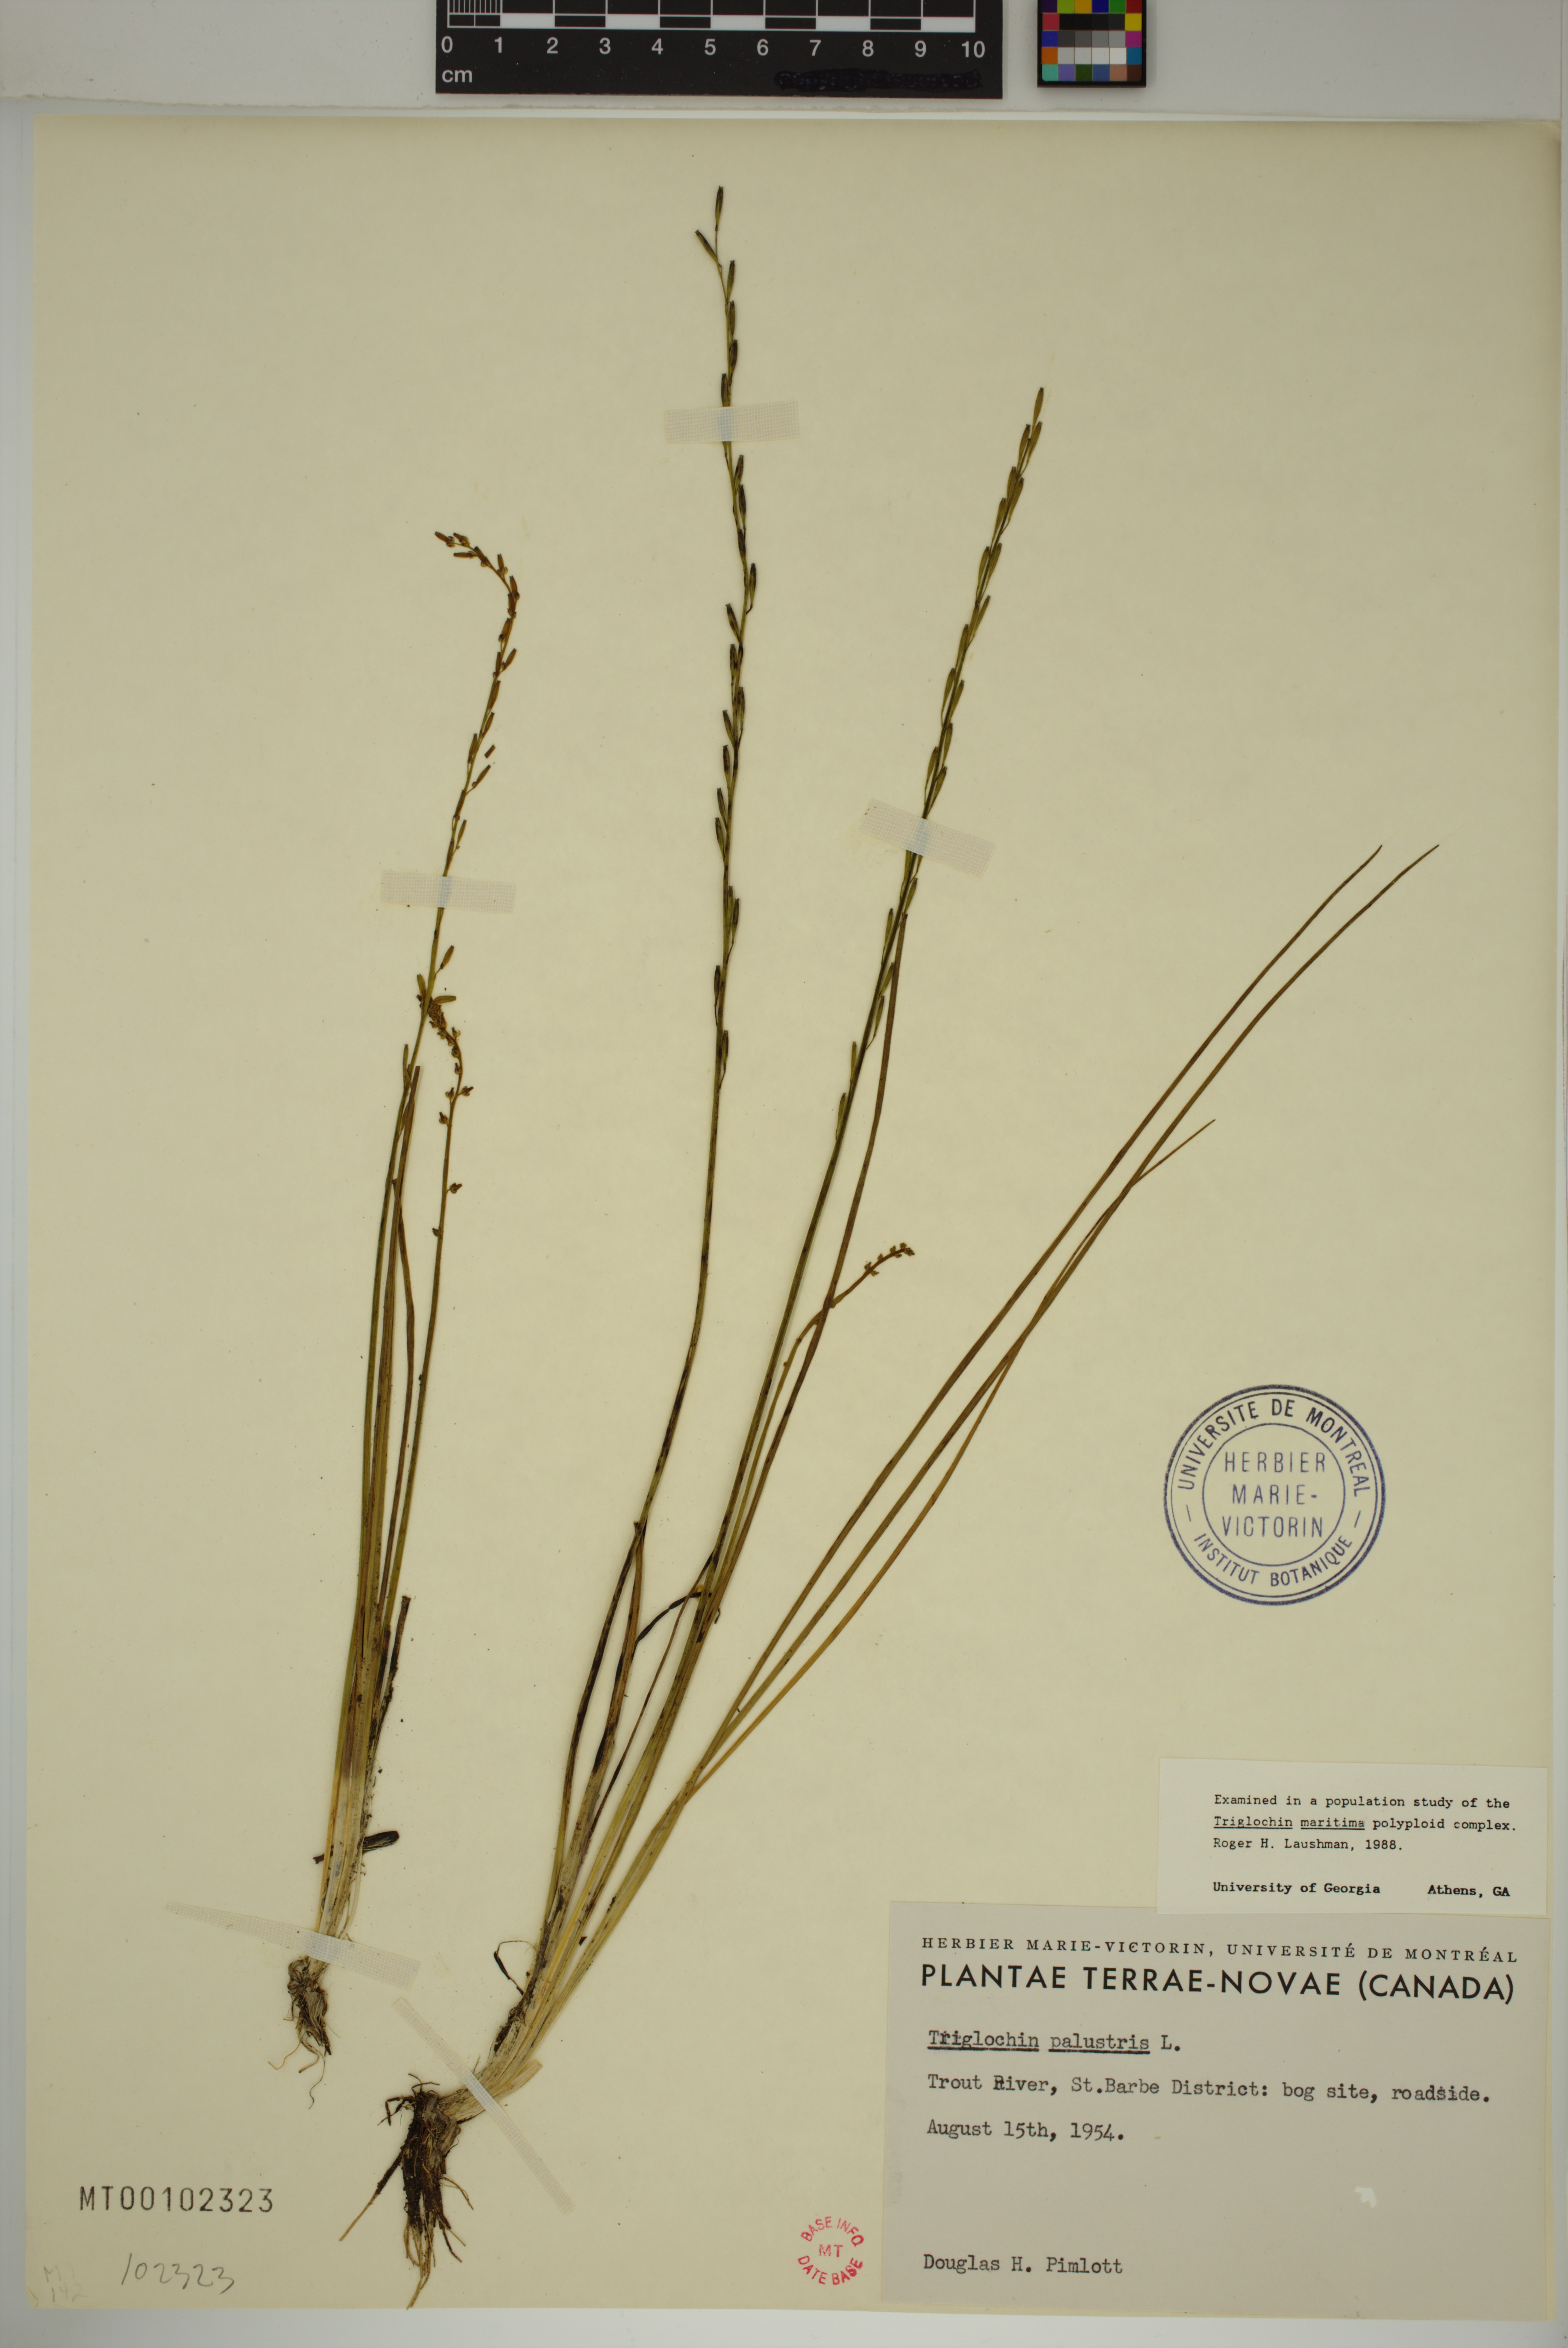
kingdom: Plantae
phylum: Tracheophyta
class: Liliopsida
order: Alismatales
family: Juncaginaceae
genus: Triglochin
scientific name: Triglochin palustris
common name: Marsh arrowgrass
